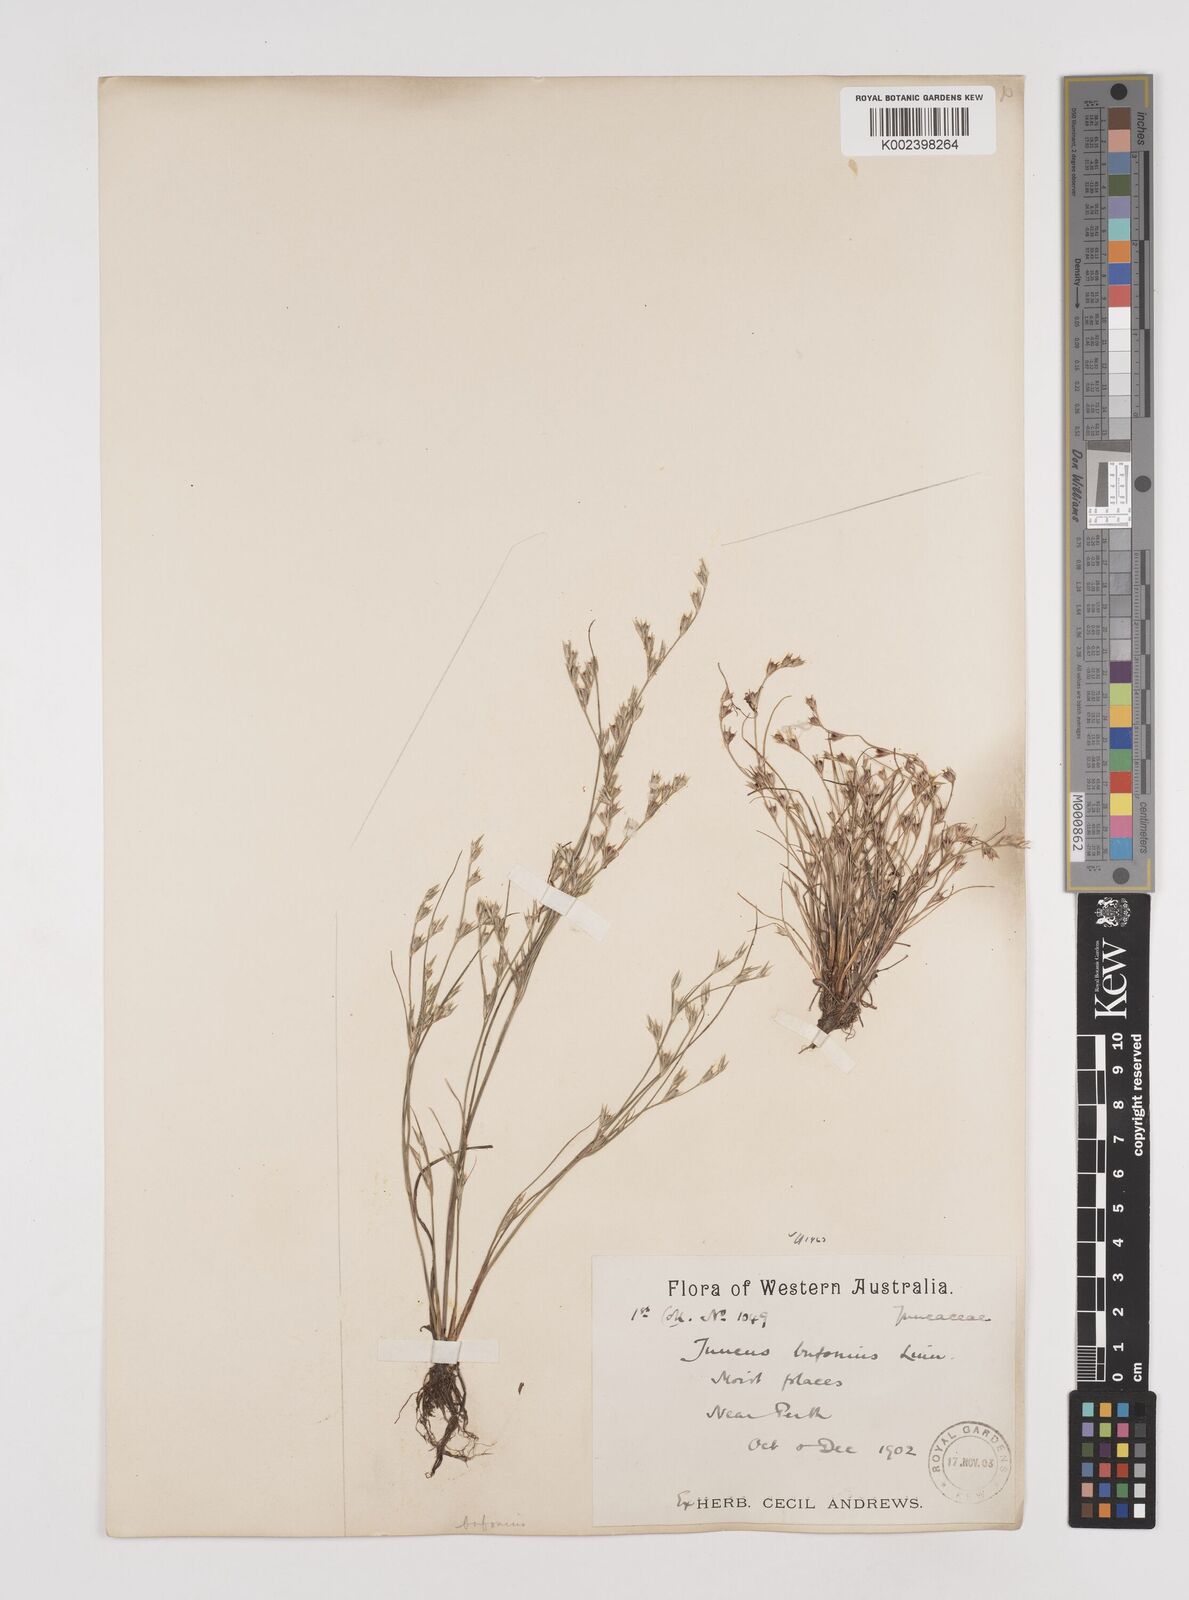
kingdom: Plantae
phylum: Tracheophyta
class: Liliopsida
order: Poales
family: Juncaceae
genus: Juncus
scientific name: Juncus bufonius
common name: Toad rush
